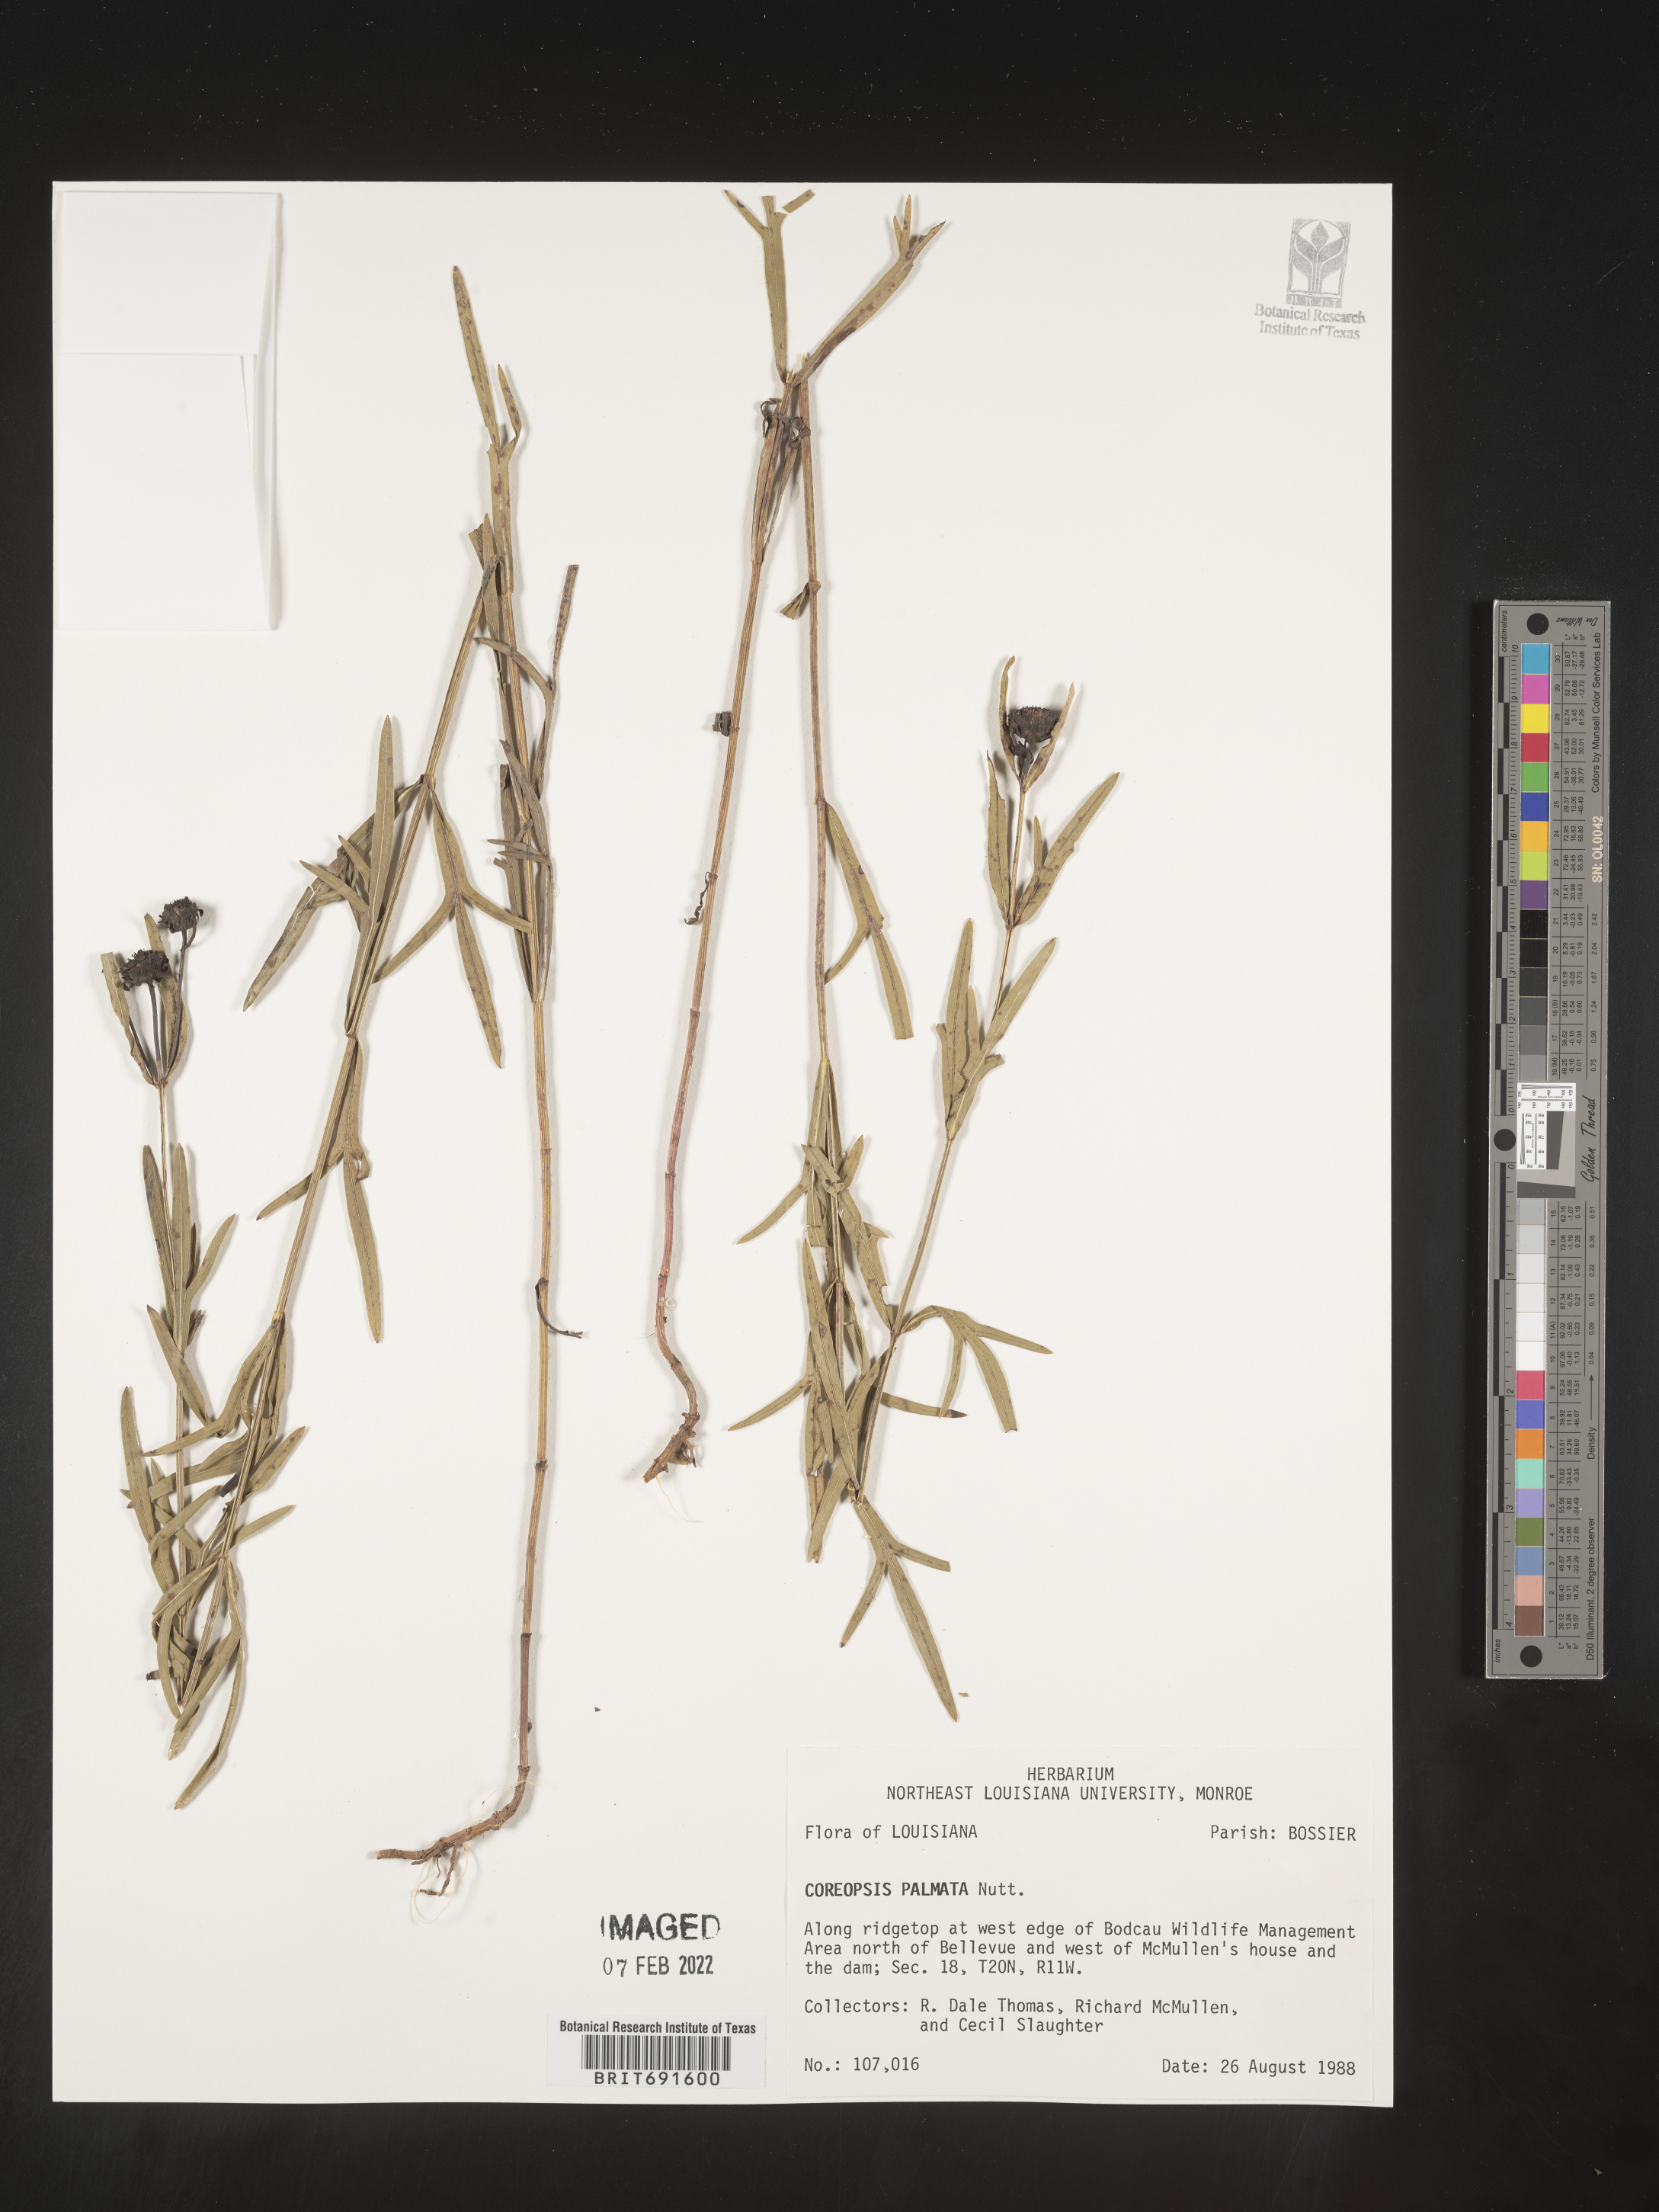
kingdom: Plantae
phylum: Tracheophyta
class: Magnoliopsida
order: Asterales
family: Asteraceae
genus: Coreopsis
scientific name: Coreopsis palmata
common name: Prairie coreopsis
